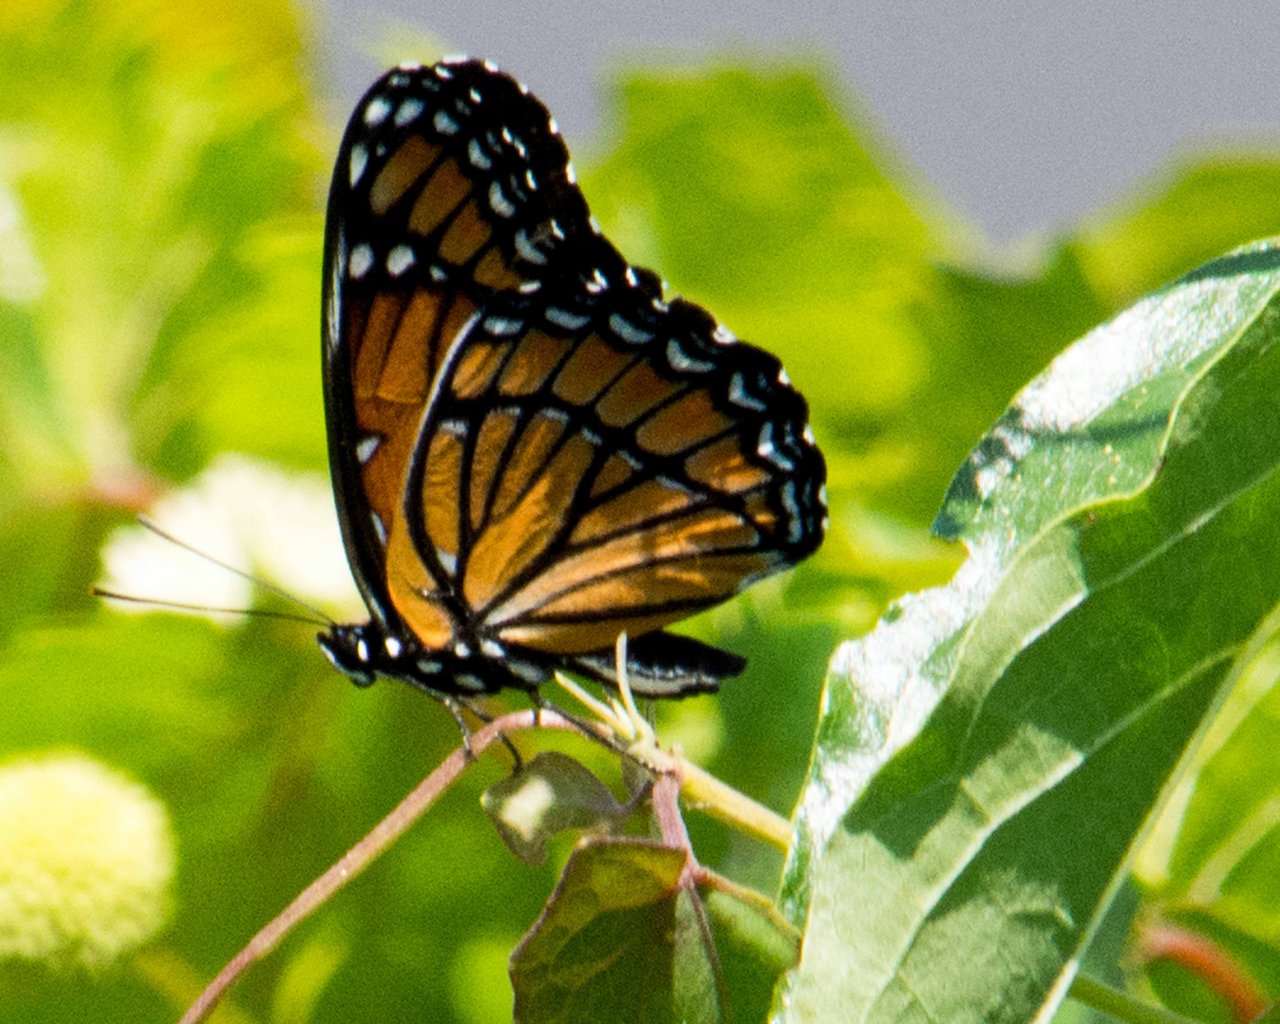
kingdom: Animalia
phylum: Arthropoda
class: Insecta
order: Lepidoptera
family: Nymphalidae
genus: Limenitis
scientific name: Limenitis archippus
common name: Viceroy
